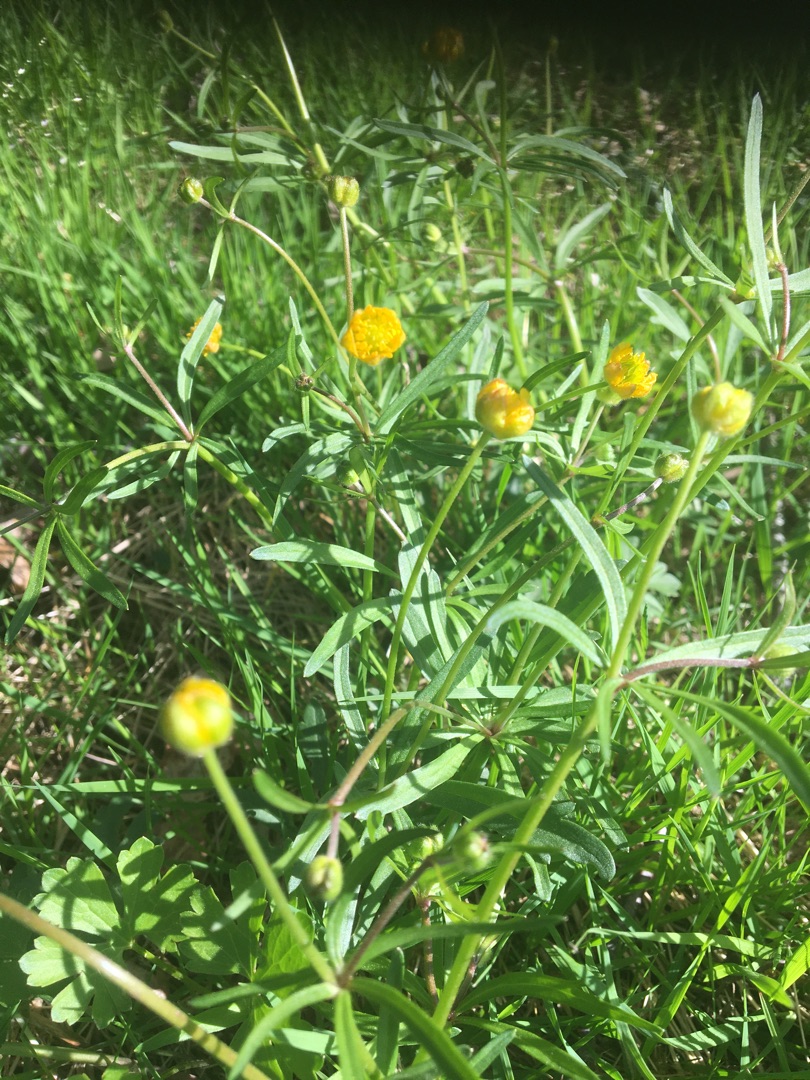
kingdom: Plantae
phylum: Tracheophyta
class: Magnoliopsida
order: Ranunculales
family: Ranunculaceae
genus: Ranunculus
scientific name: Ranunculus auricomus
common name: Nyrebladet ranunkel
